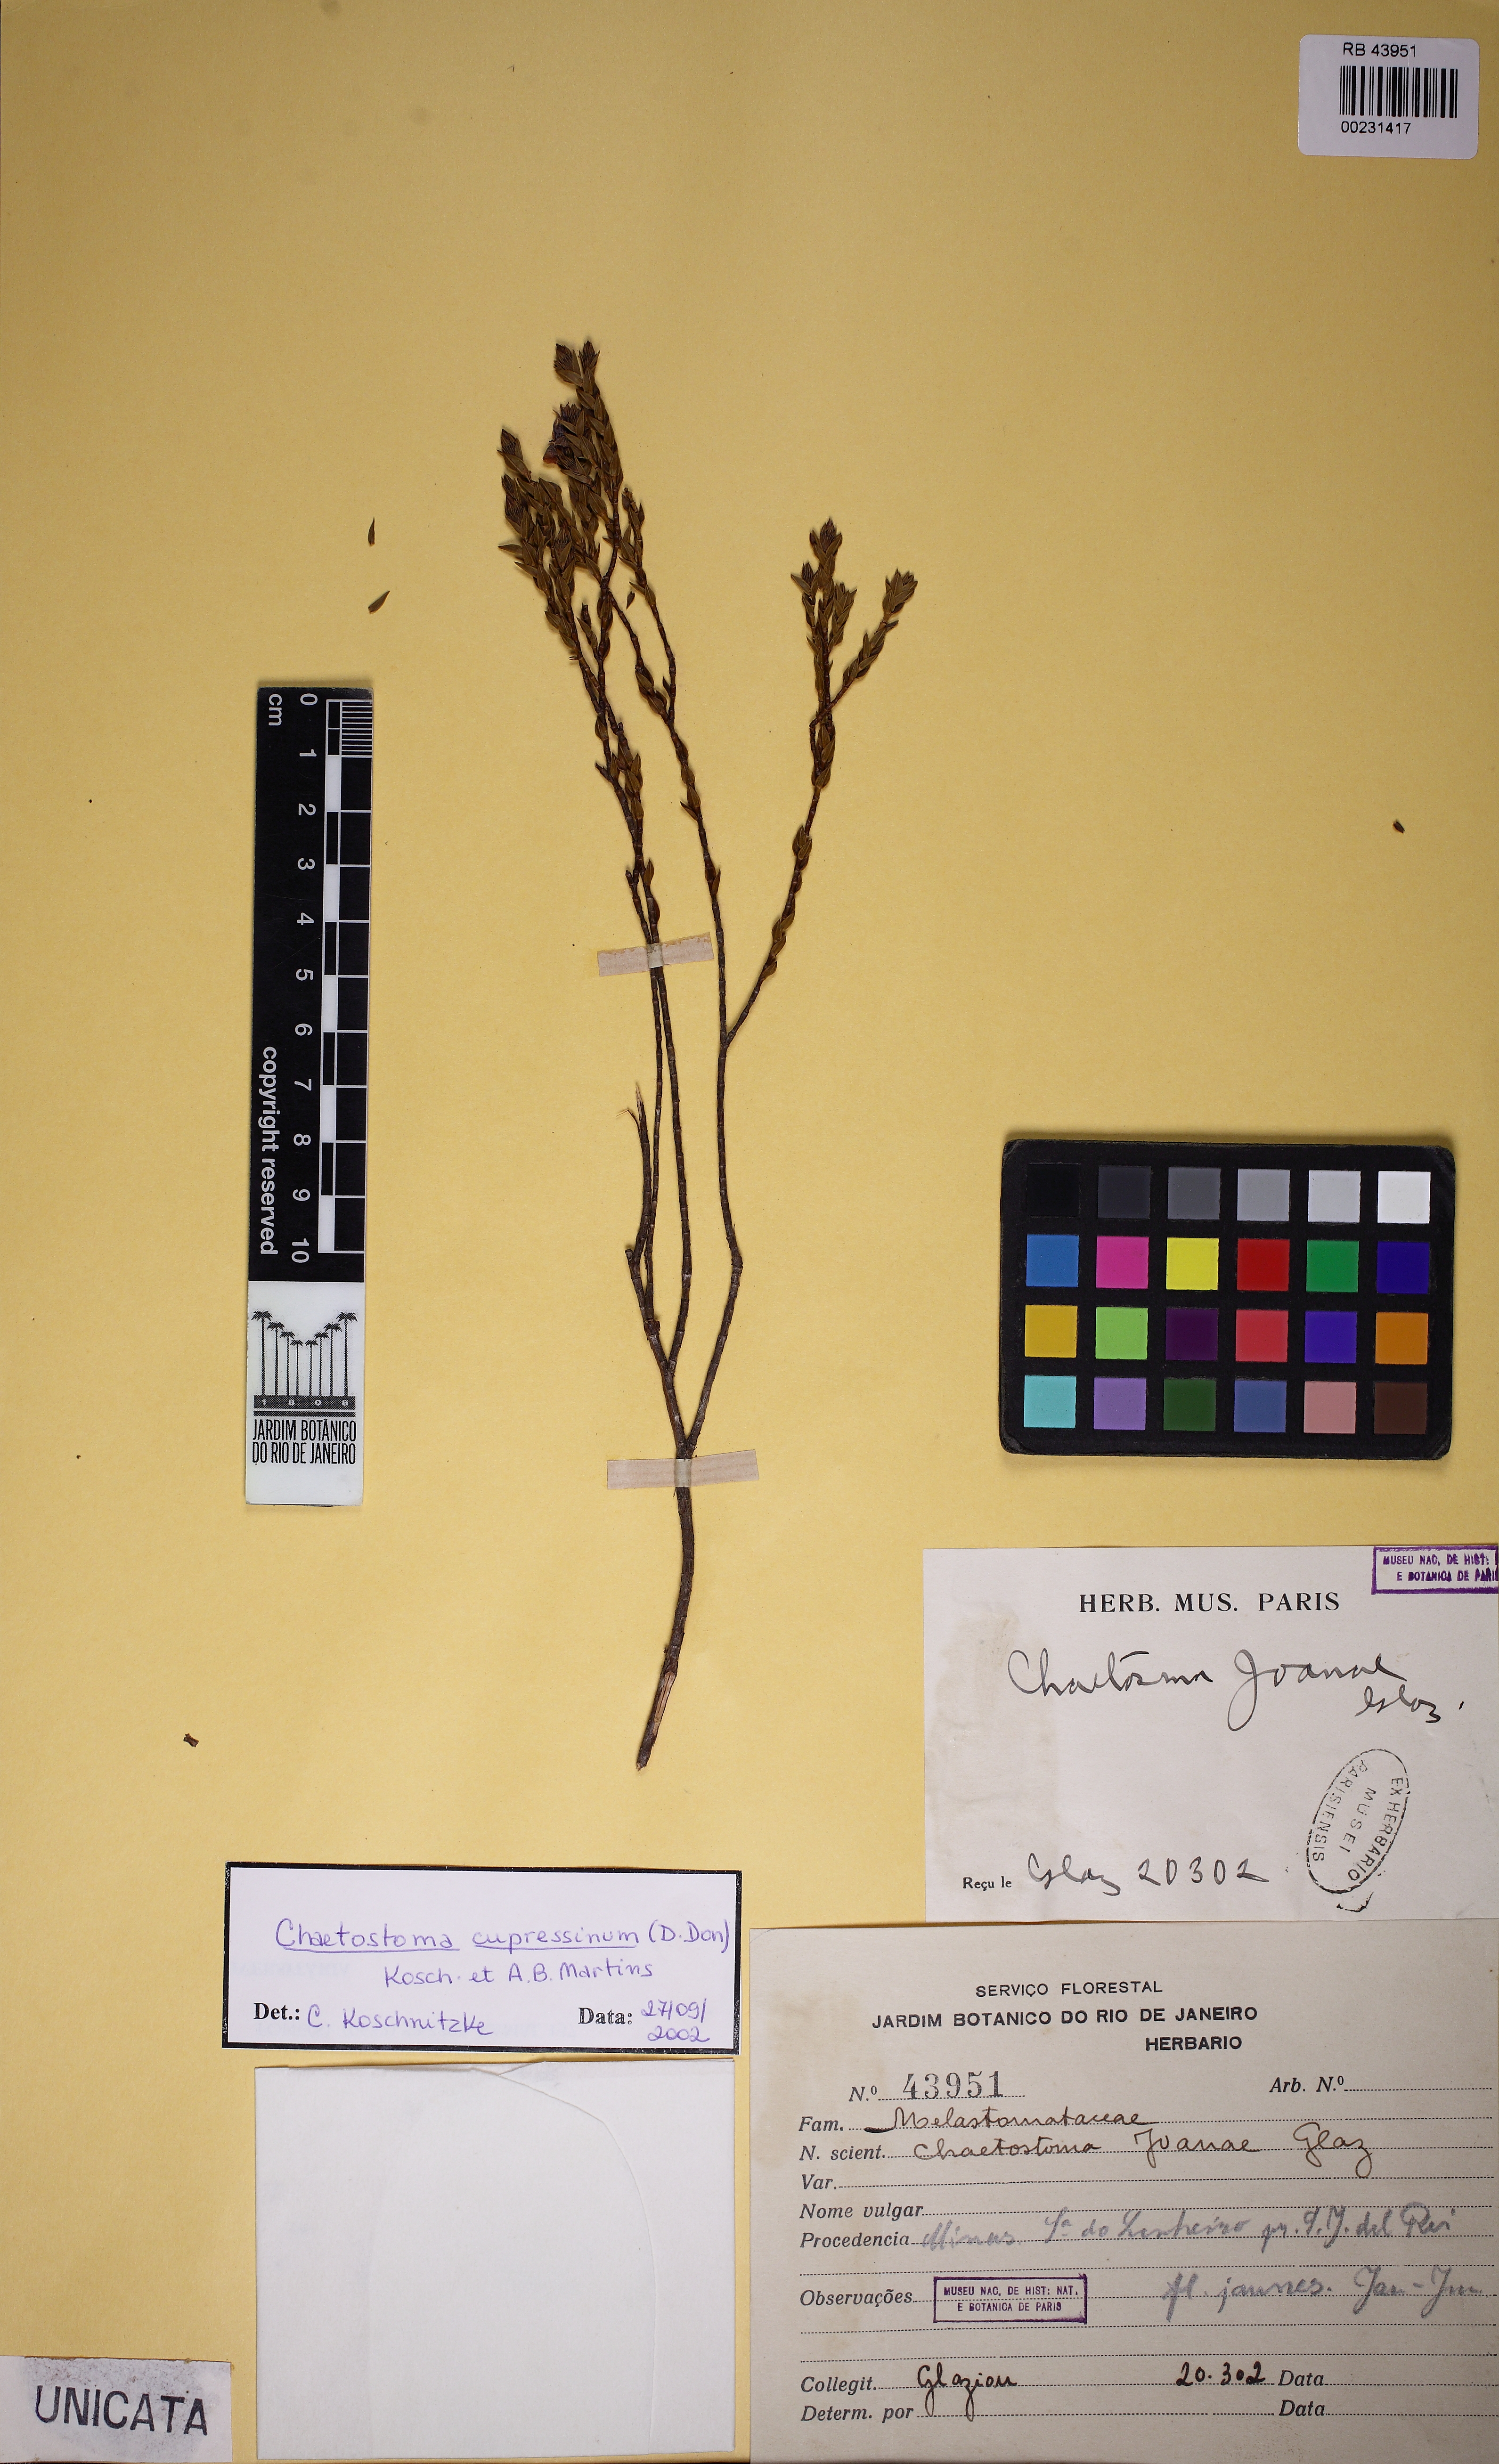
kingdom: Plantae
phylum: Tracheophyta
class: Magnoliopsida
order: Myrtales
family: Melastomataceae
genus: Microlicia
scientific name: Microlicia cupressina
